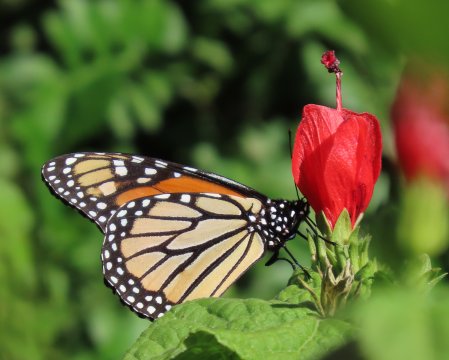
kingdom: Animalia
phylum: Arthropoda
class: Insecta
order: Lepidoptera
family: Nymphalidae
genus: Danaus
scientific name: Danaus plexippus
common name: Monarch
